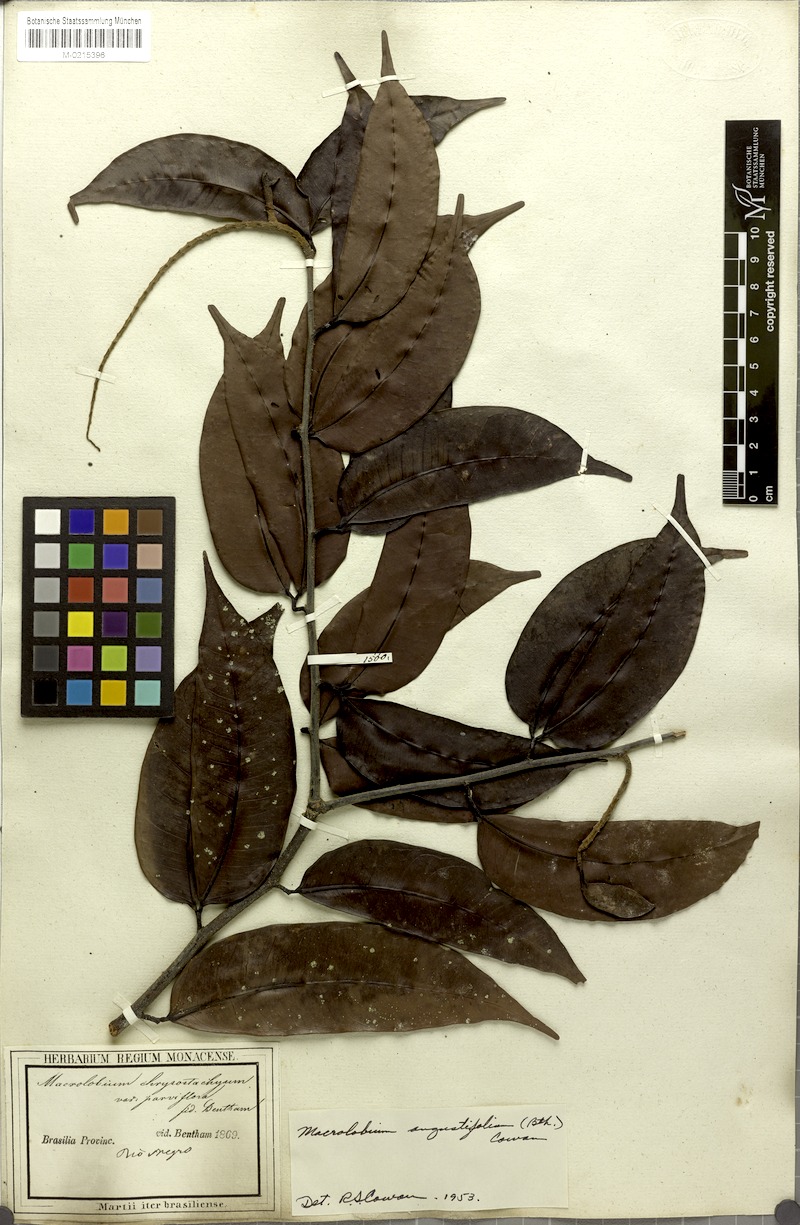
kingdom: Plantae
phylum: Tracheophyta
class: Magnoliopsida
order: Fabales
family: Fabaceae
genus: Macrolobium
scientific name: Macrolobium angustifolium
